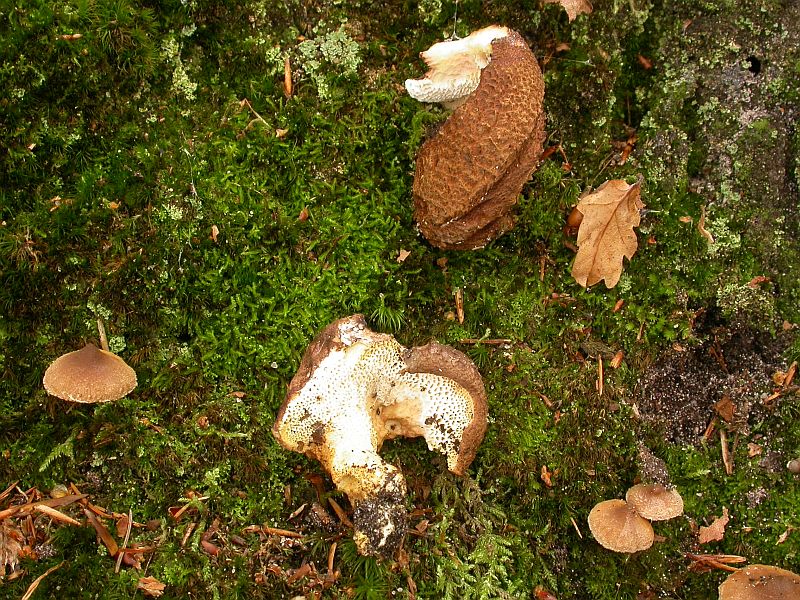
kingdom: Fungi
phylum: Basidiomycota
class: Agaricomycetes
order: Russulales
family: Albatrellaceae
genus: Scutiger
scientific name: Scutiger pes-caprae
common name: skællet fåreporesvamp
